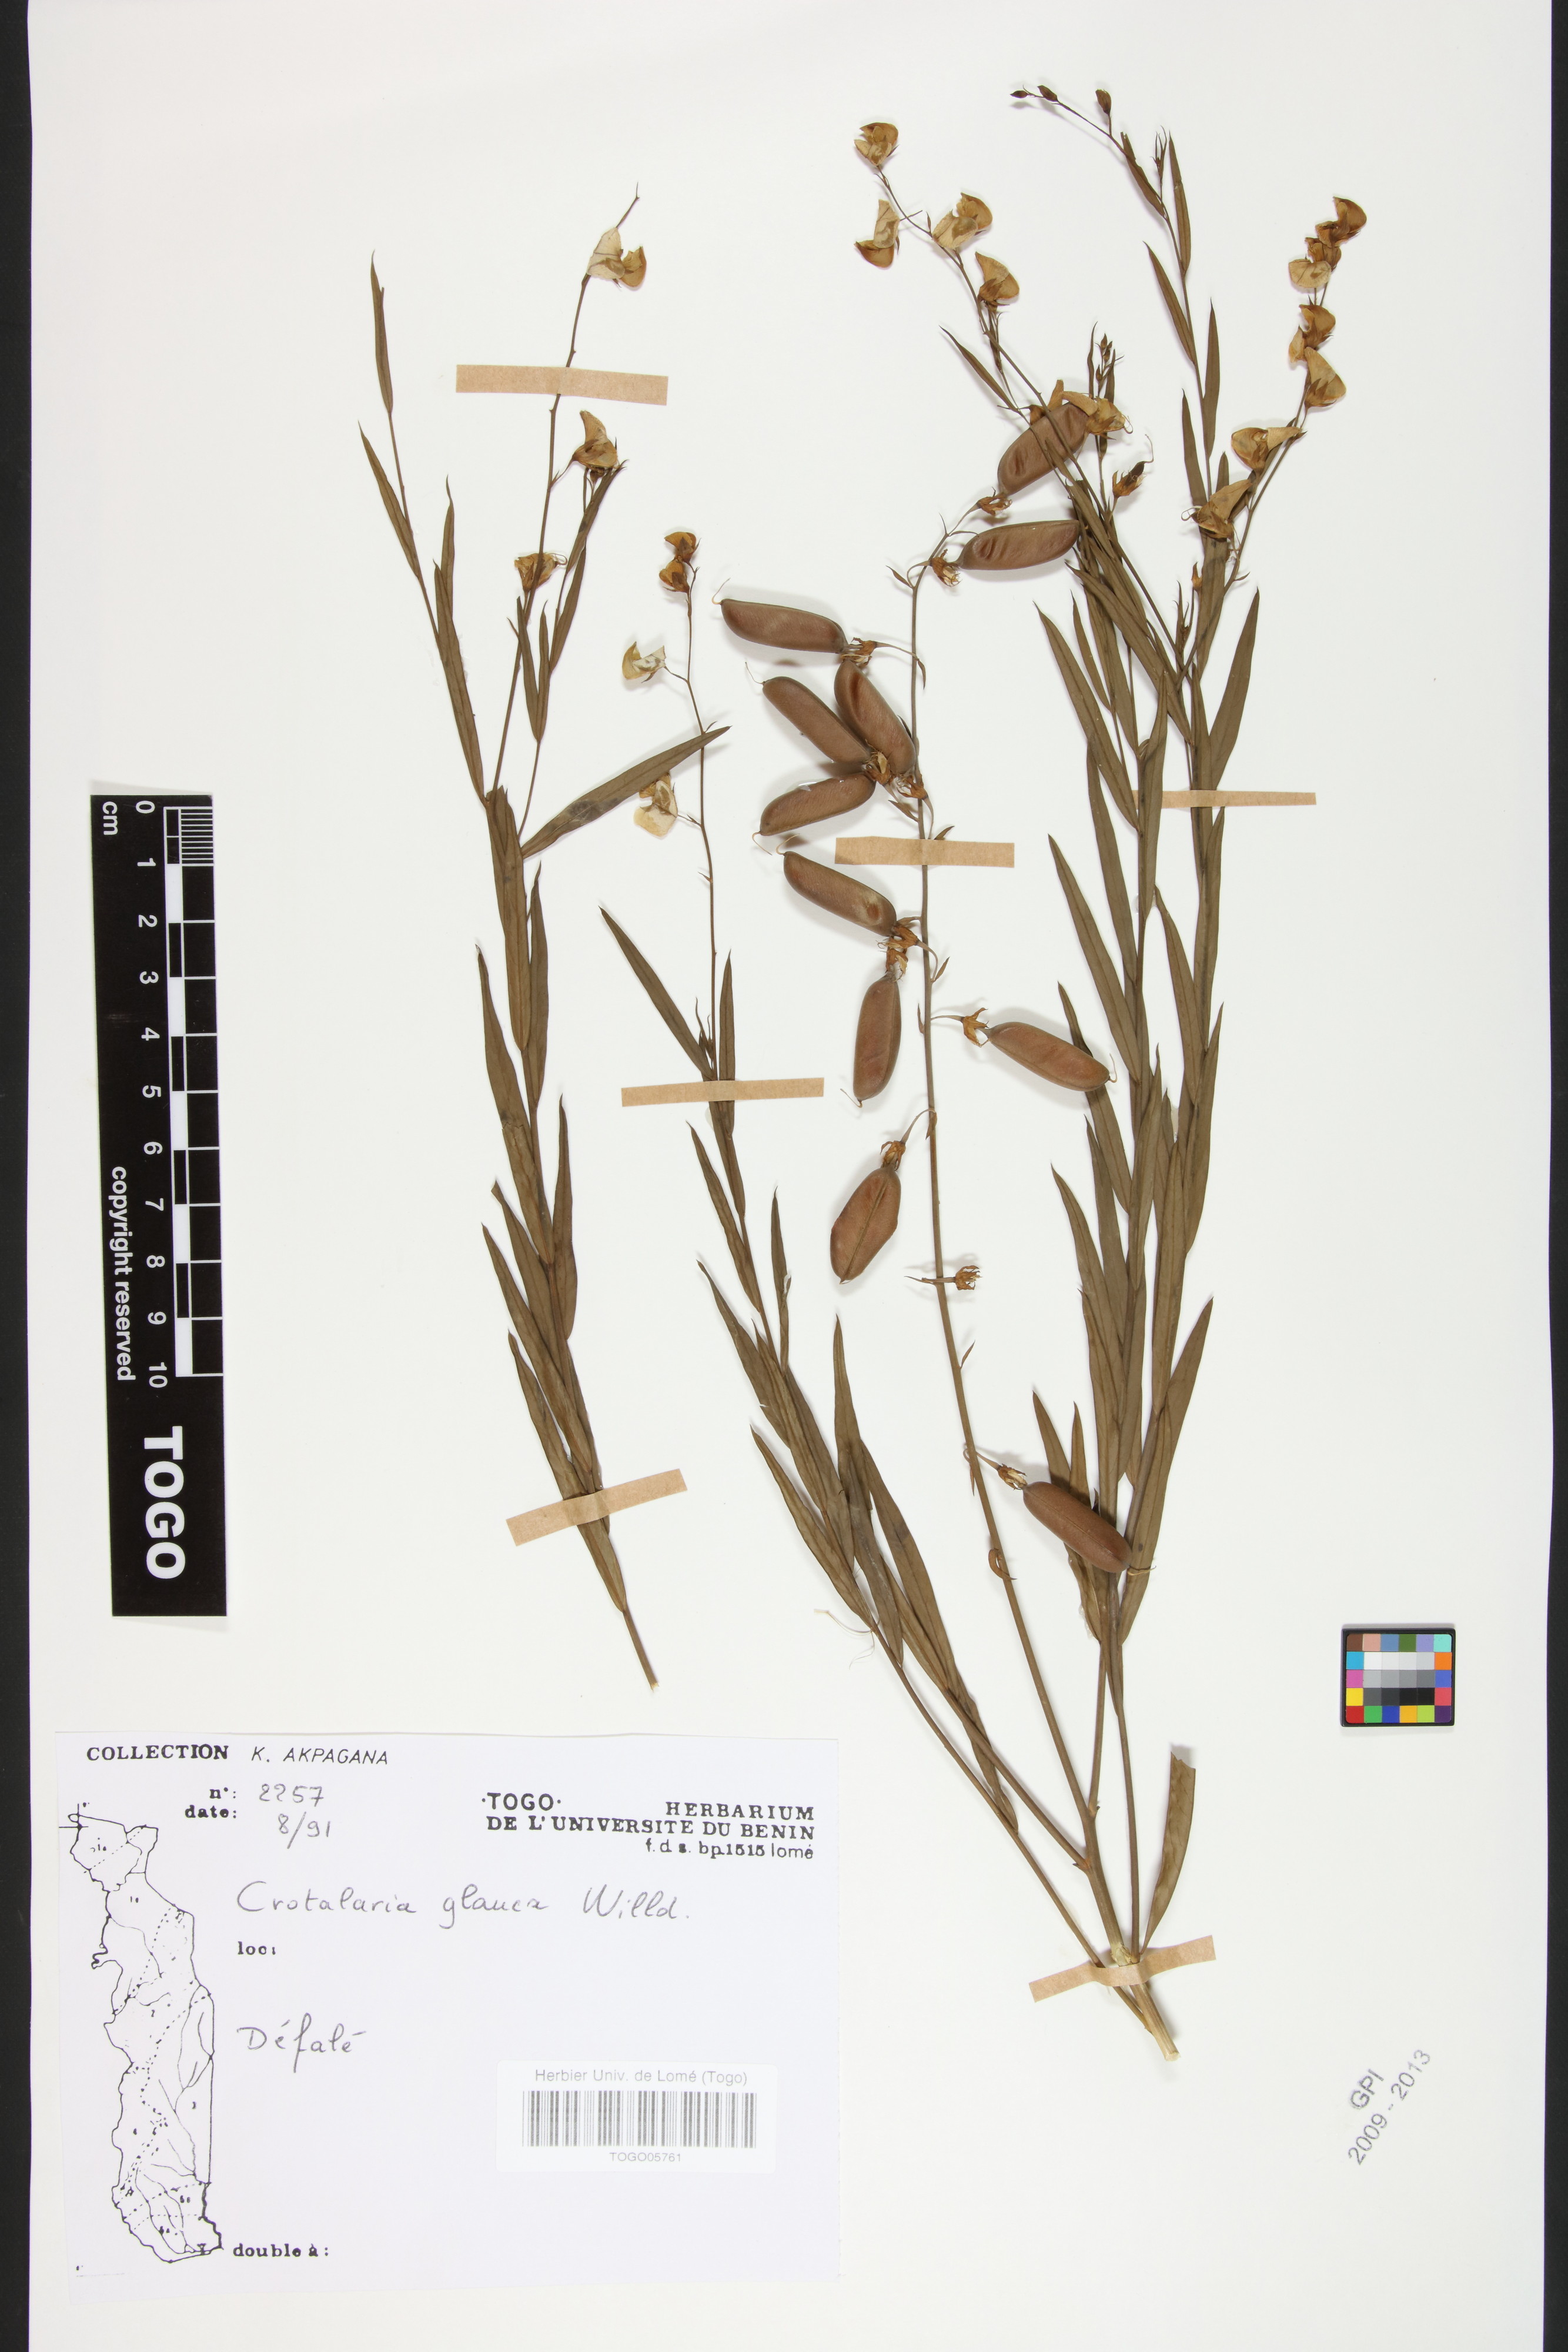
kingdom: Plantae
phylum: Tracheophyta
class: Magnoliopsida
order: Fabales
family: Fabaceae
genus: Crotalaria
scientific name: Crotalaria glauca
